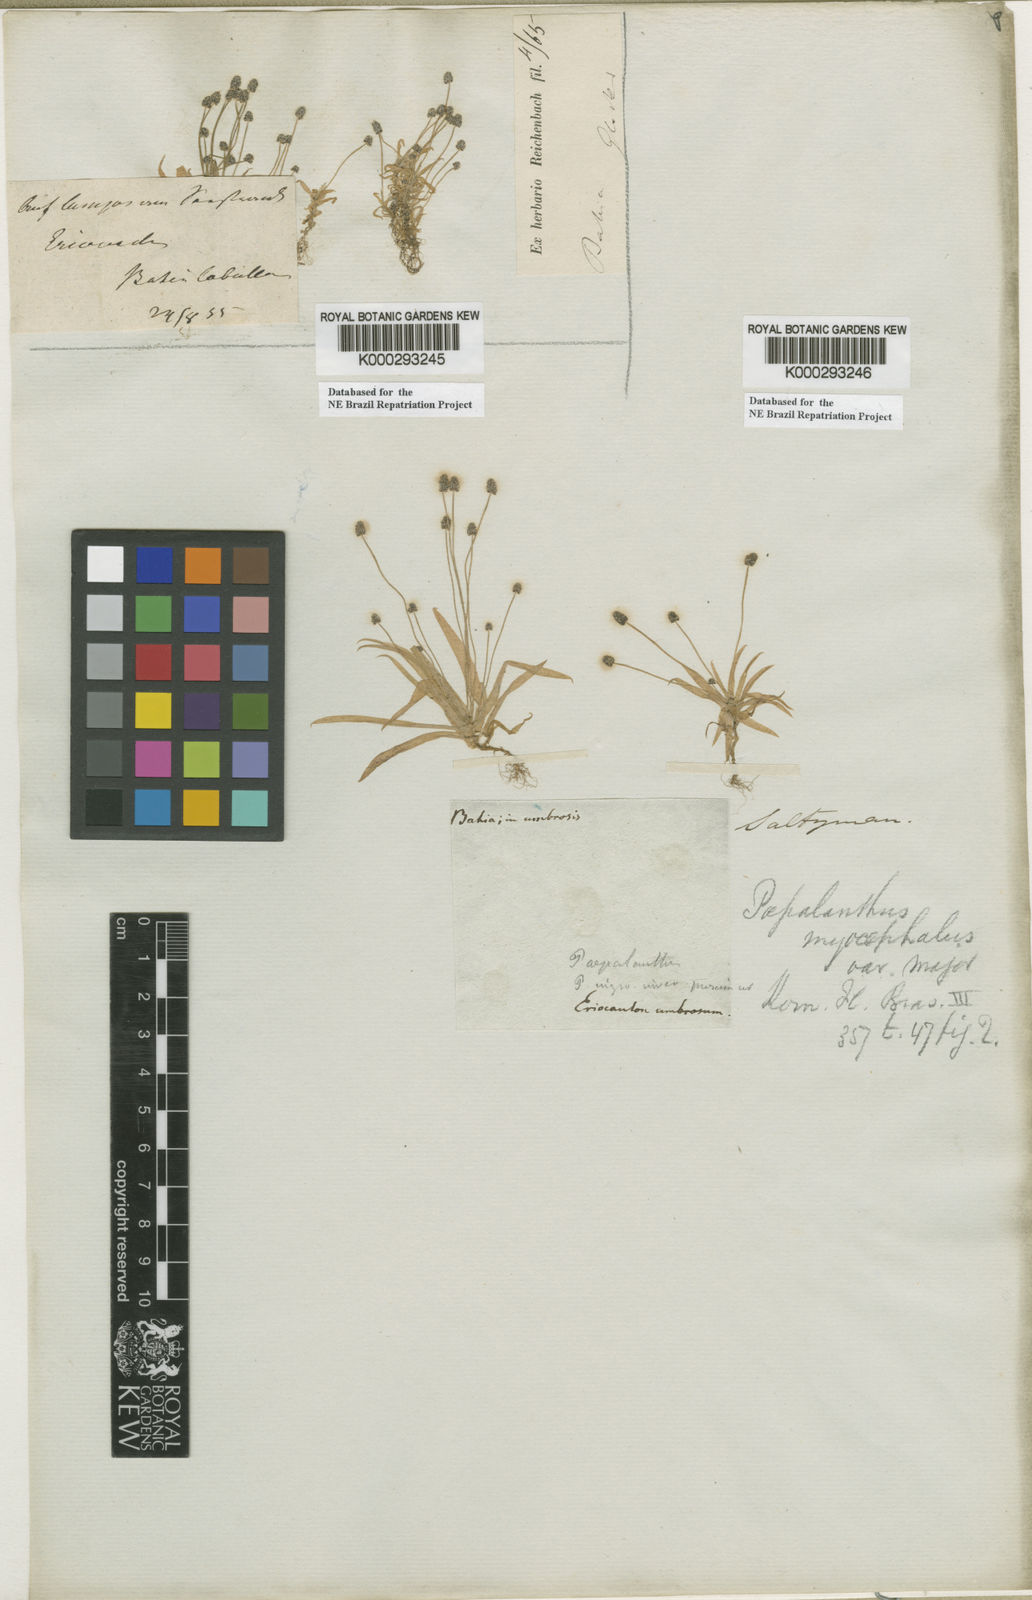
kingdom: Plantae
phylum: Tracheophyta
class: Liliopsida
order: Poales
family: Eriocaulaceae
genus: Paepalanthus
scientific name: Paepalanthus
